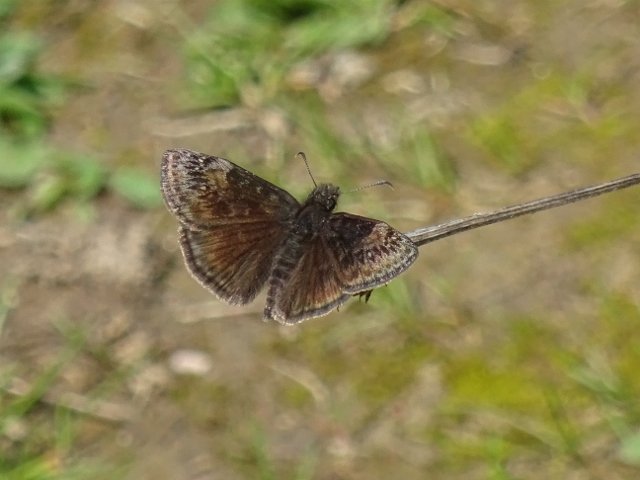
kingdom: Animalia
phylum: Arthropoda
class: Insecta
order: Lepidoptera
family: Hesperiidae
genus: Gesta
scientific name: Gesta
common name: Wild Indigo Duskywing
